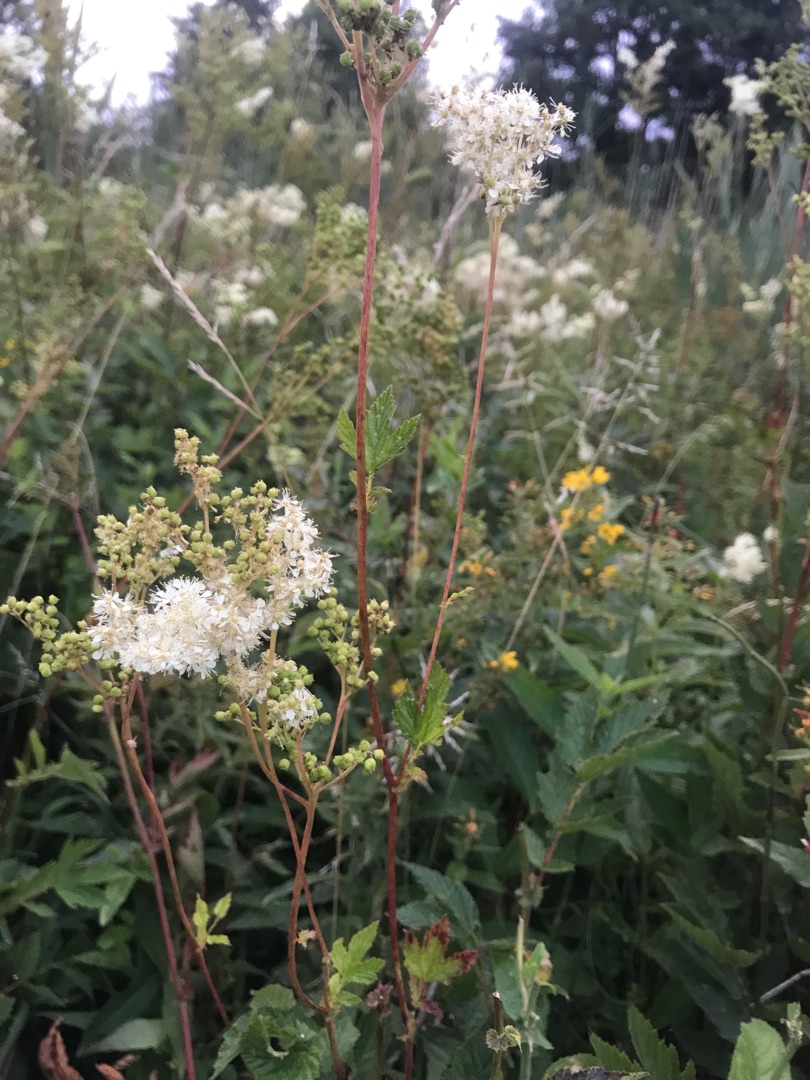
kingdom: Plantae
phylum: Tracheophyta
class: Magnoliopsida
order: Rosales
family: Rosaceae
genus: Filipendula
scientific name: Filipendula ulmaria
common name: Almindelig mjødurt
